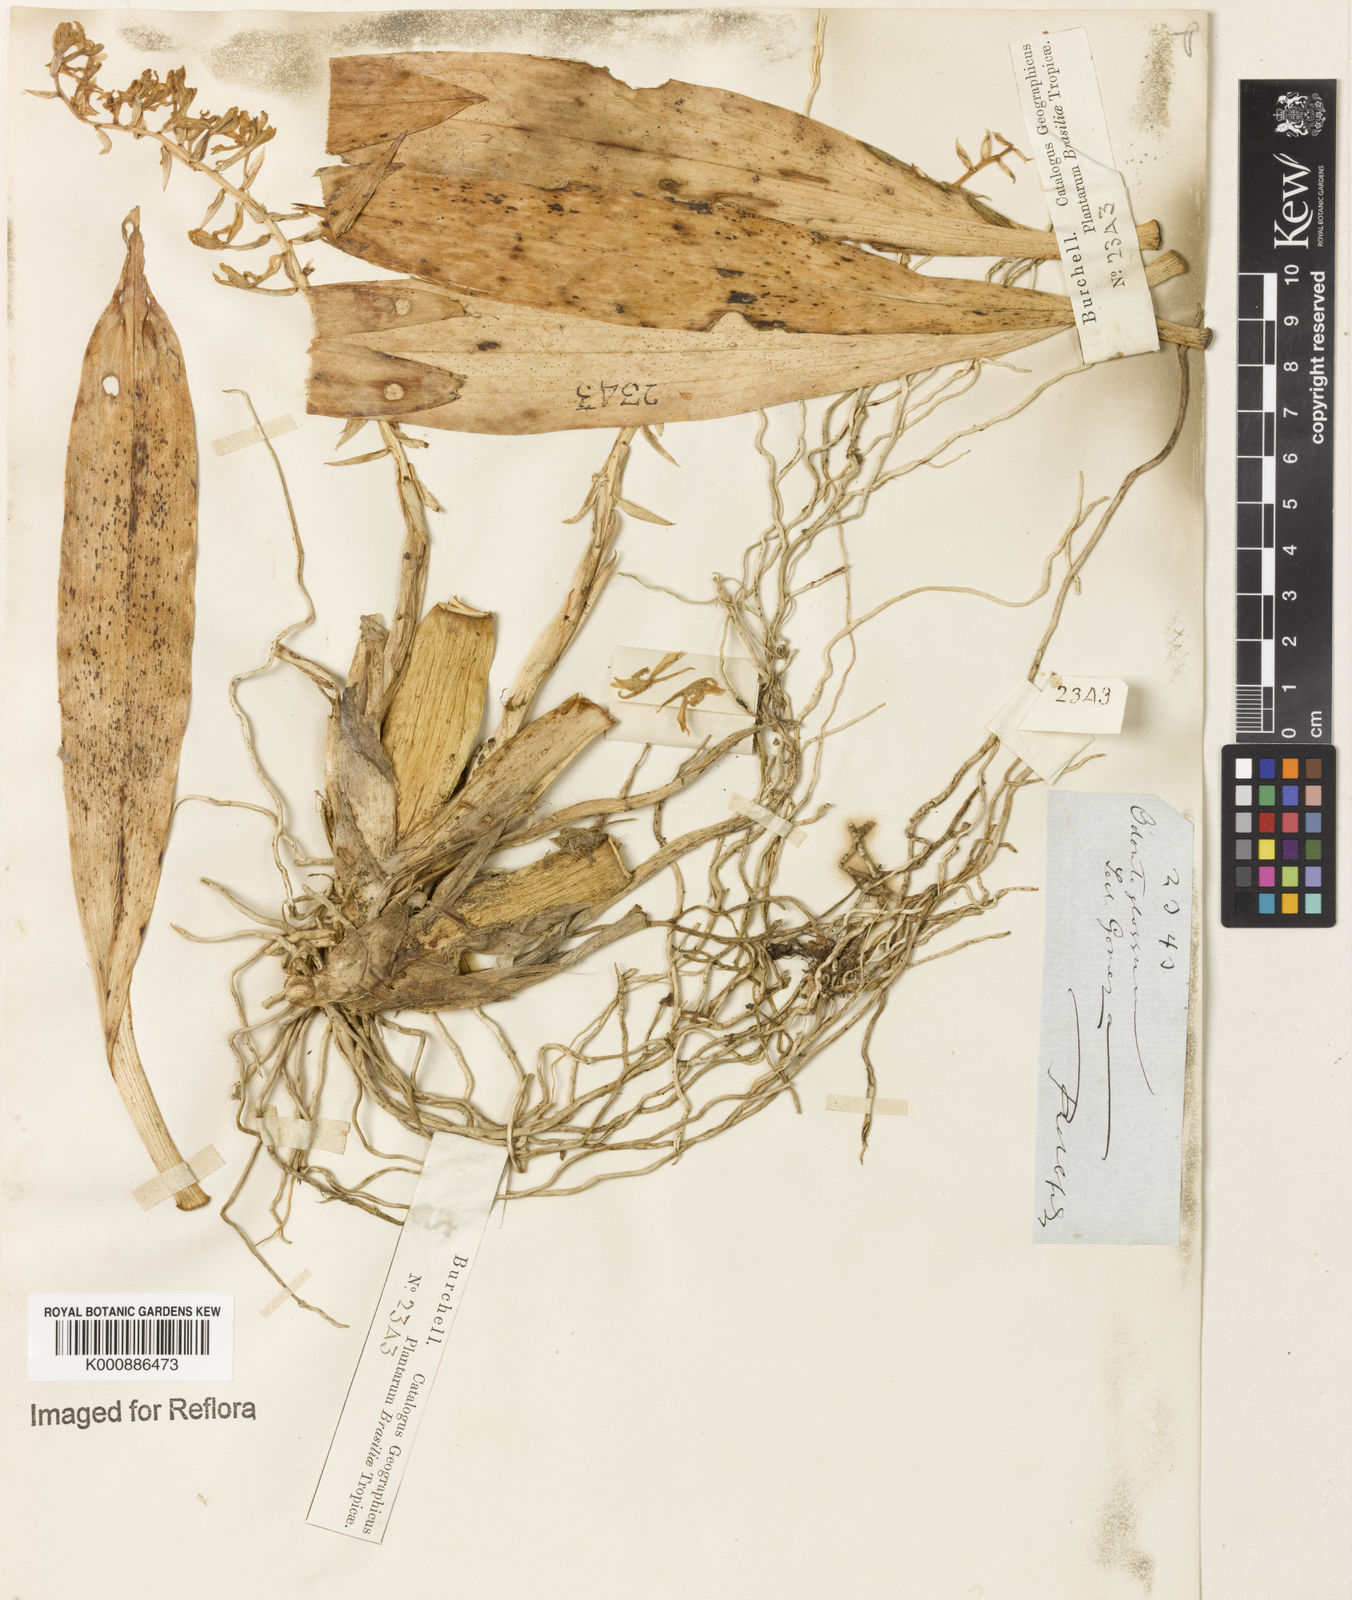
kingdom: Plantae
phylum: Tracheophyta
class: Liliopsida
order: Asparagales
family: Orchidaceae
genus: Gomesa
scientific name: Gomesa recurva
